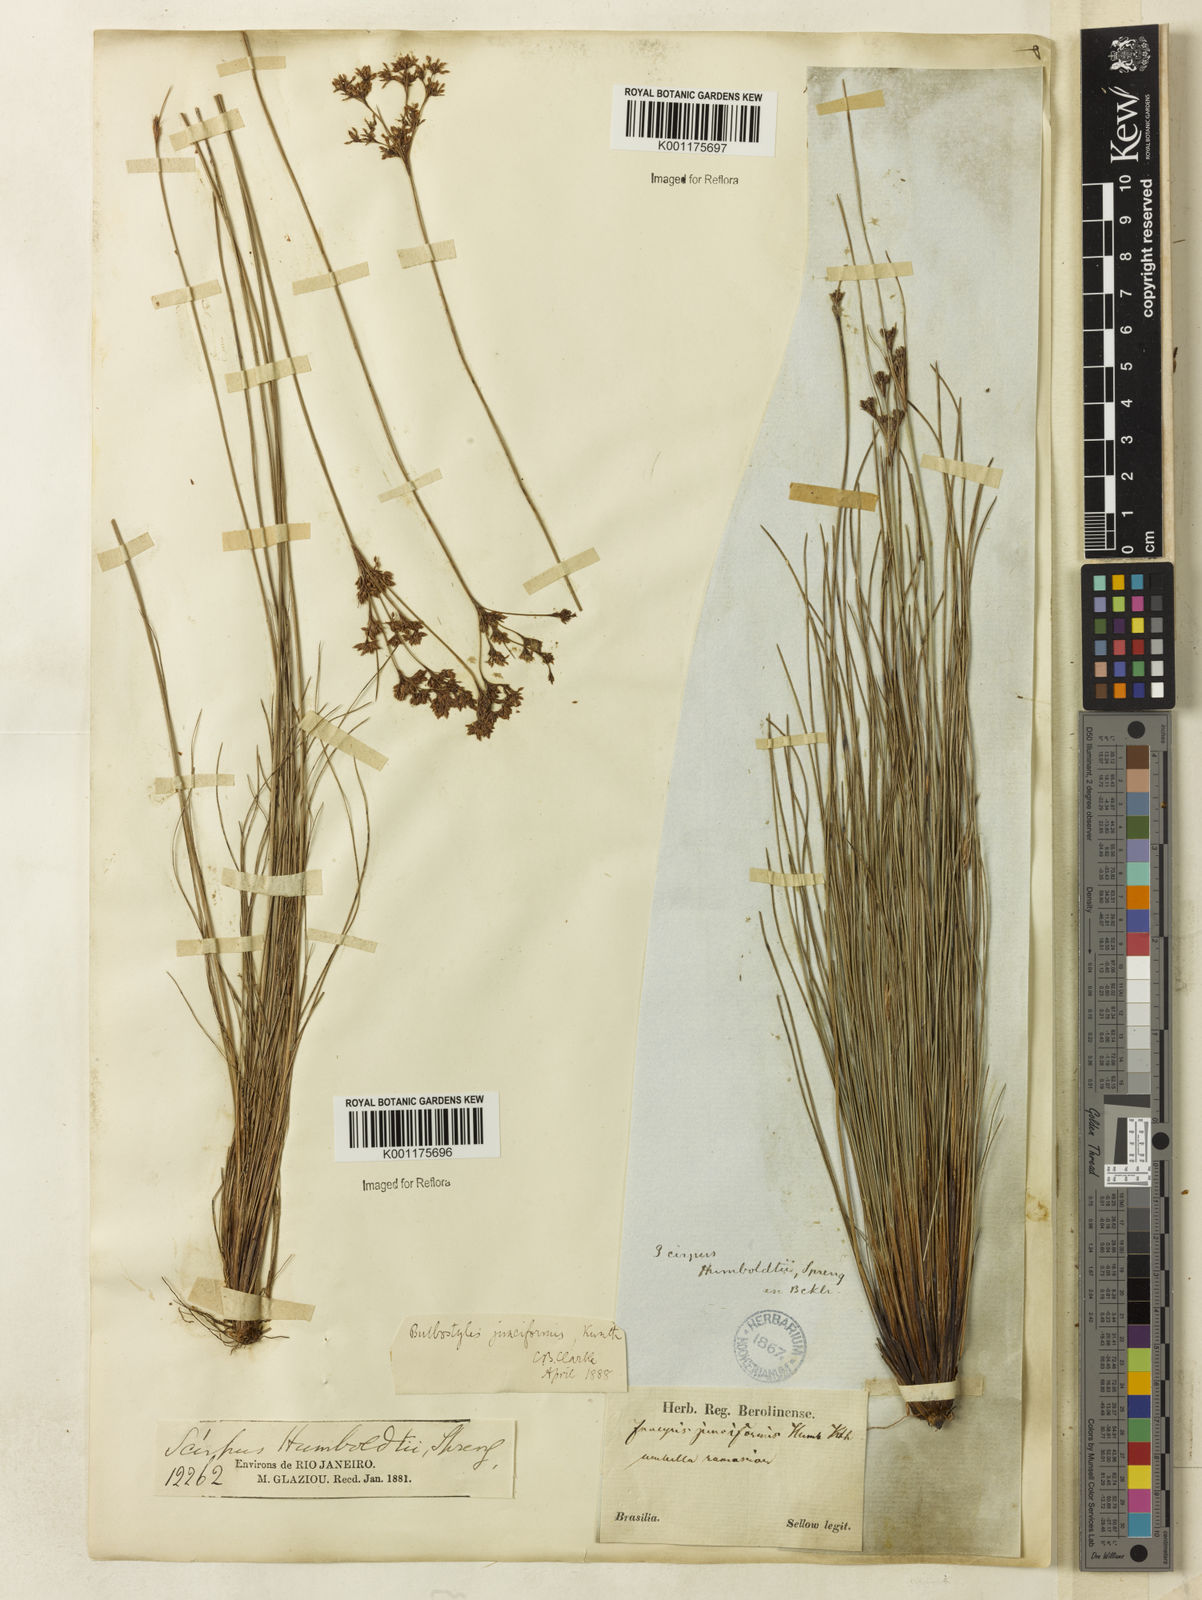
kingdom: Plantae
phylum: Tracheophyta
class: Liliopsida
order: Poales
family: Cyperaceae
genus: Bulbostylis
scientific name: Bulbostylis junciformis
